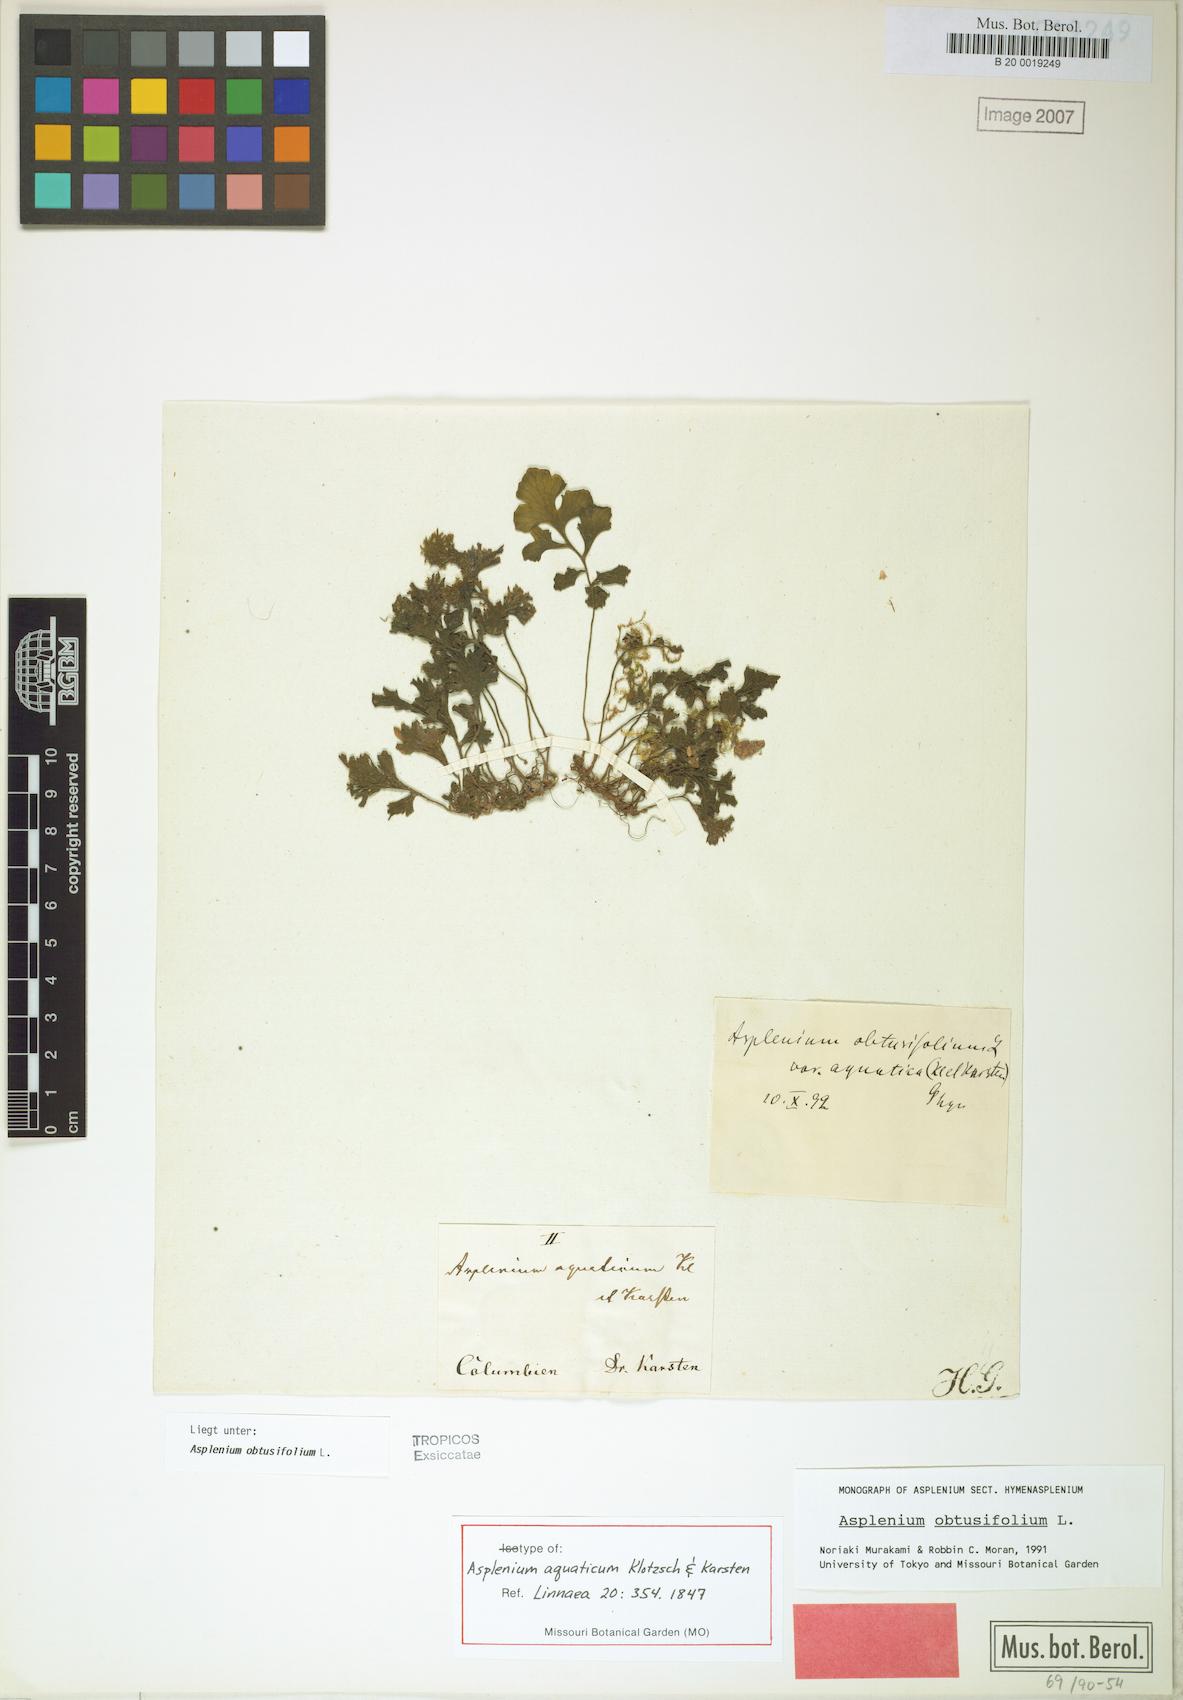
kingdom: Plantae
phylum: Tracheophyta
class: Polypodiopsida
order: Polypodiales
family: Aspleniaceae
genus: Hymenasplenium
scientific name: Hymenasplenium obtusifolium
